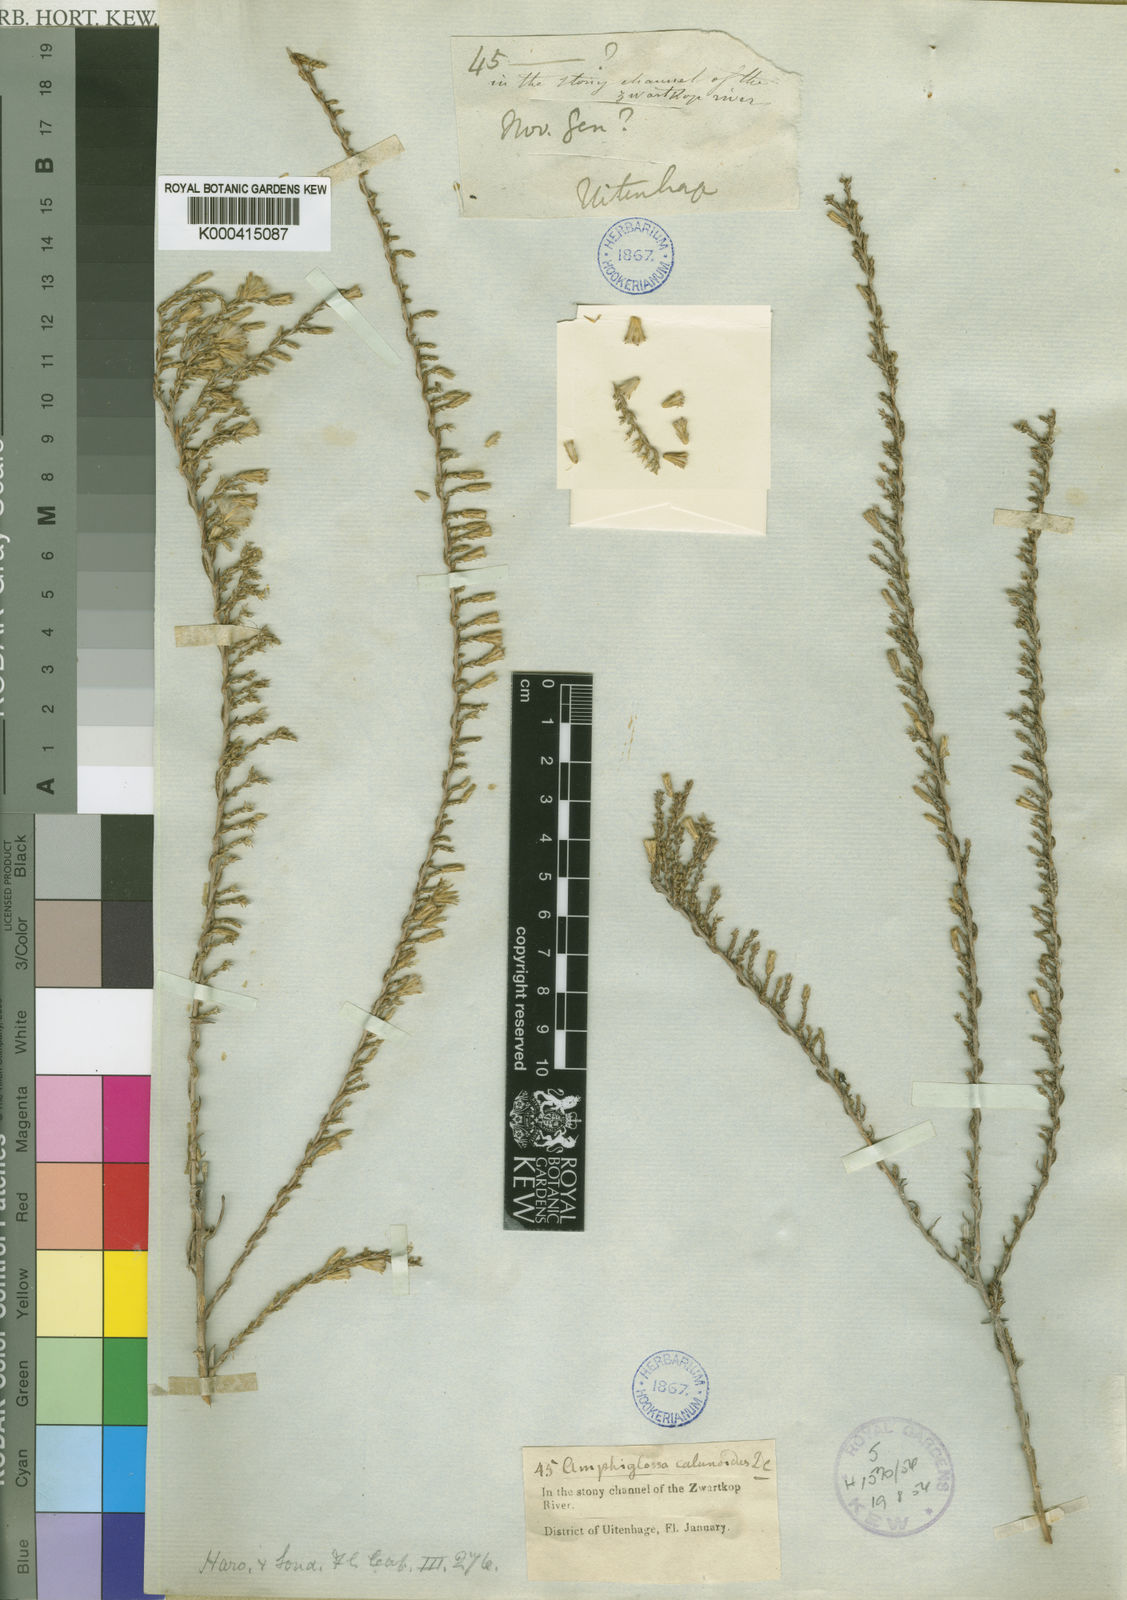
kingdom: Plantae
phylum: Tracheophyta
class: Magnoliopsida
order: Asterales
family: Asteraceae
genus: Amphiglossa
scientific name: Amphiglossa callunoides
